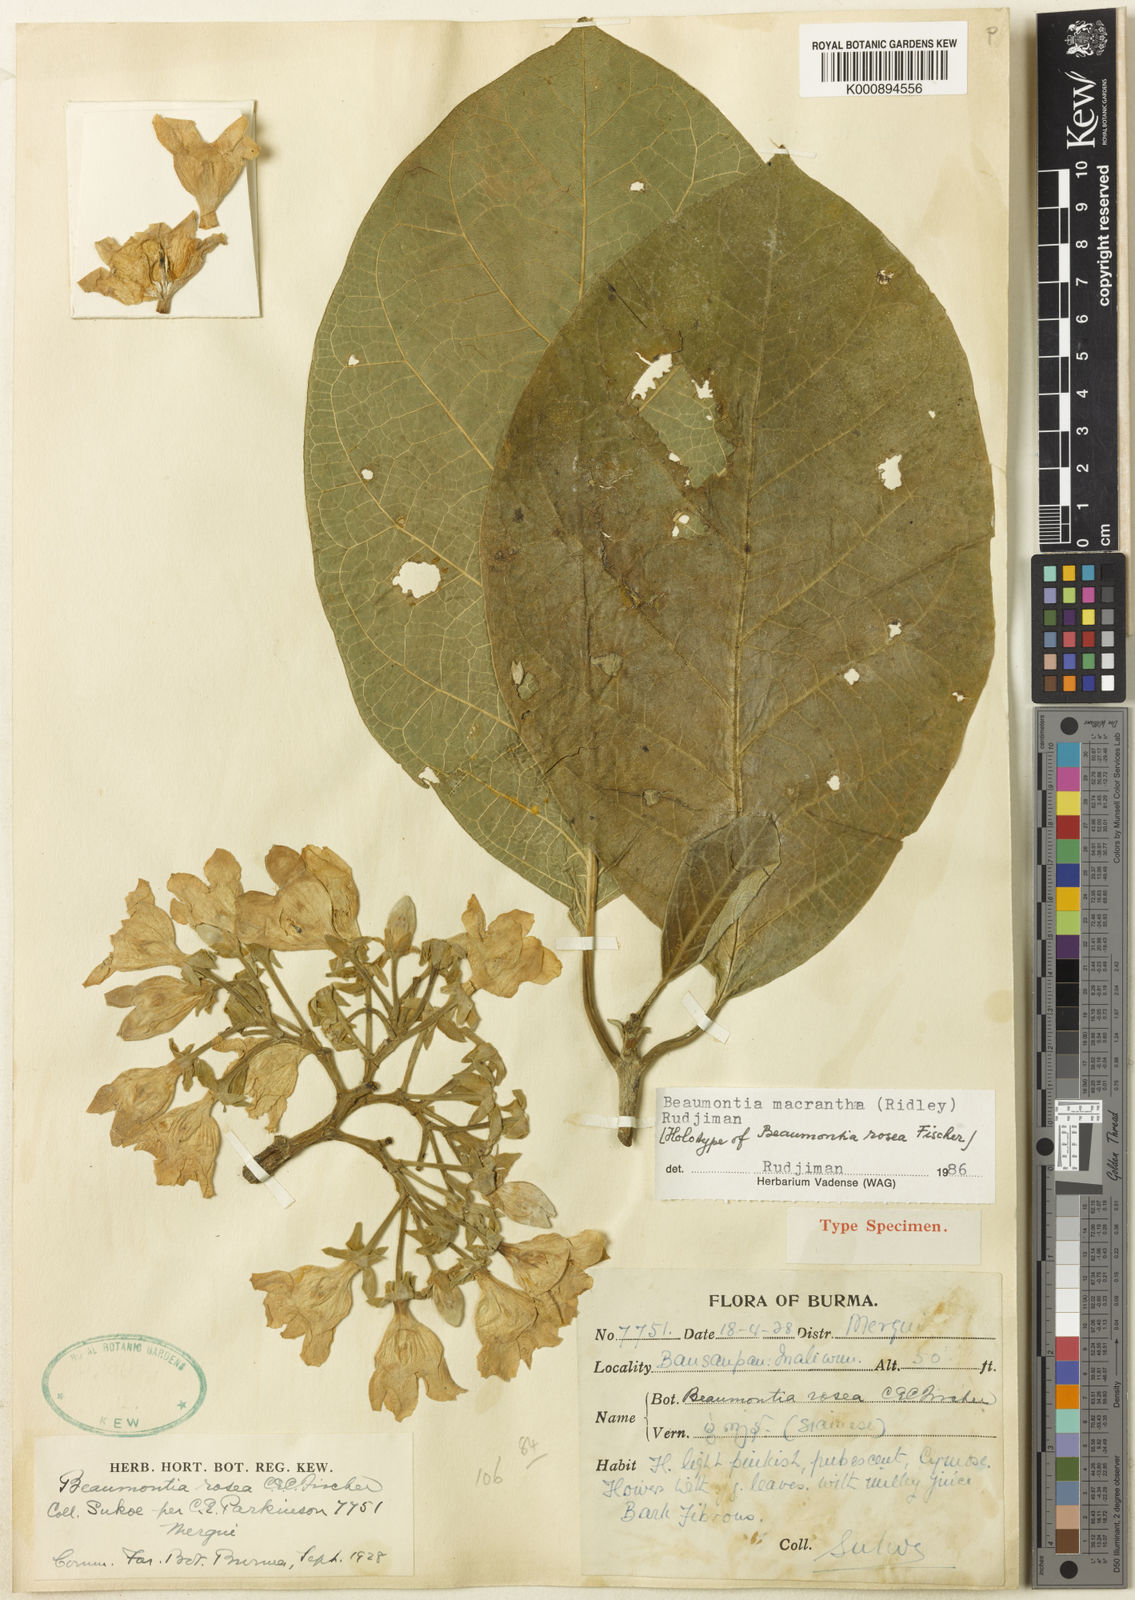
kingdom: Plantae
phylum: Tracheophyta
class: Magnoliopsida
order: Gentianales
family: Apocynaceae
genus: Beaumontia
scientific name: Beaumontia macrantha
